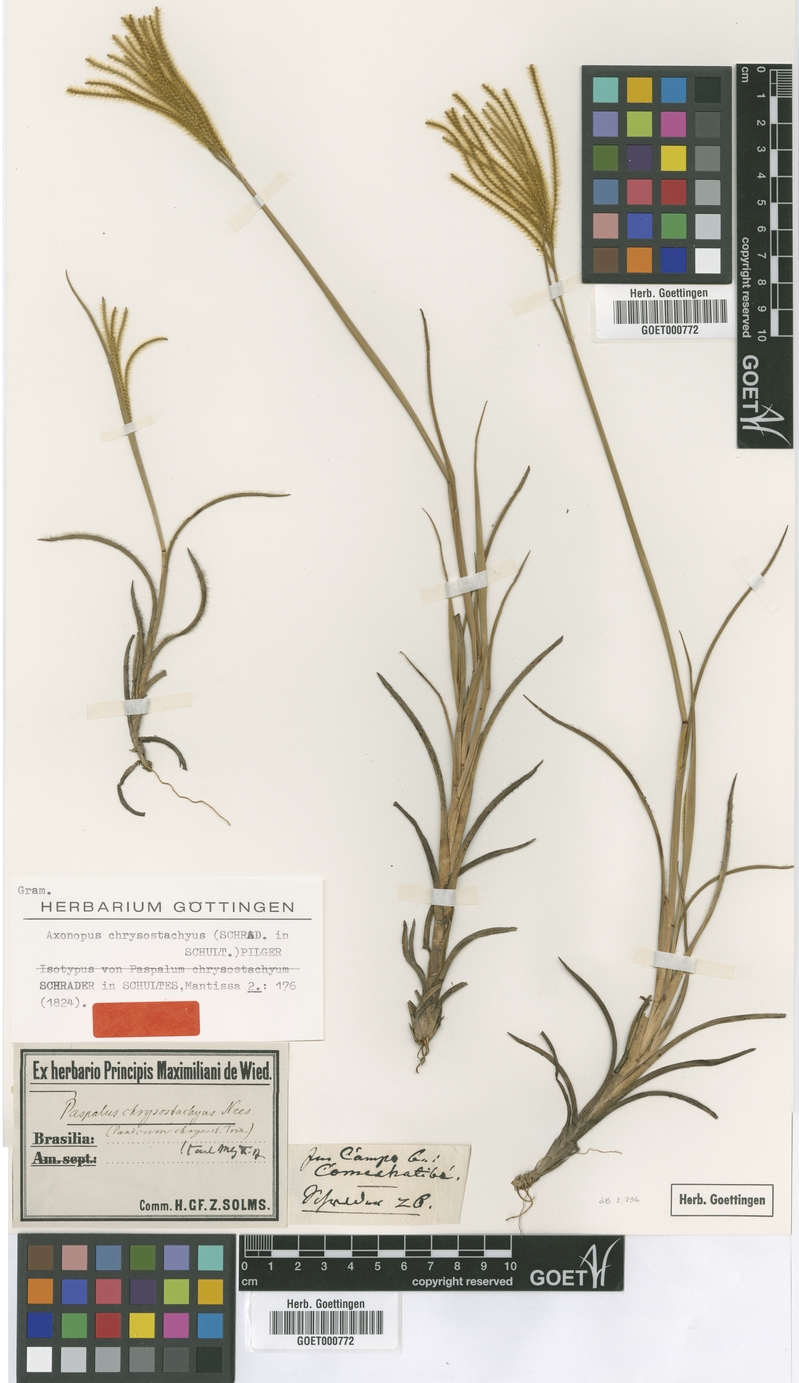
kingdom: Plantae
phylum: Tracheophyta
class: Liliopsida
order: Poales
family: Poaceae
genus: Axonopus
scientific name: Axonopus aureus
